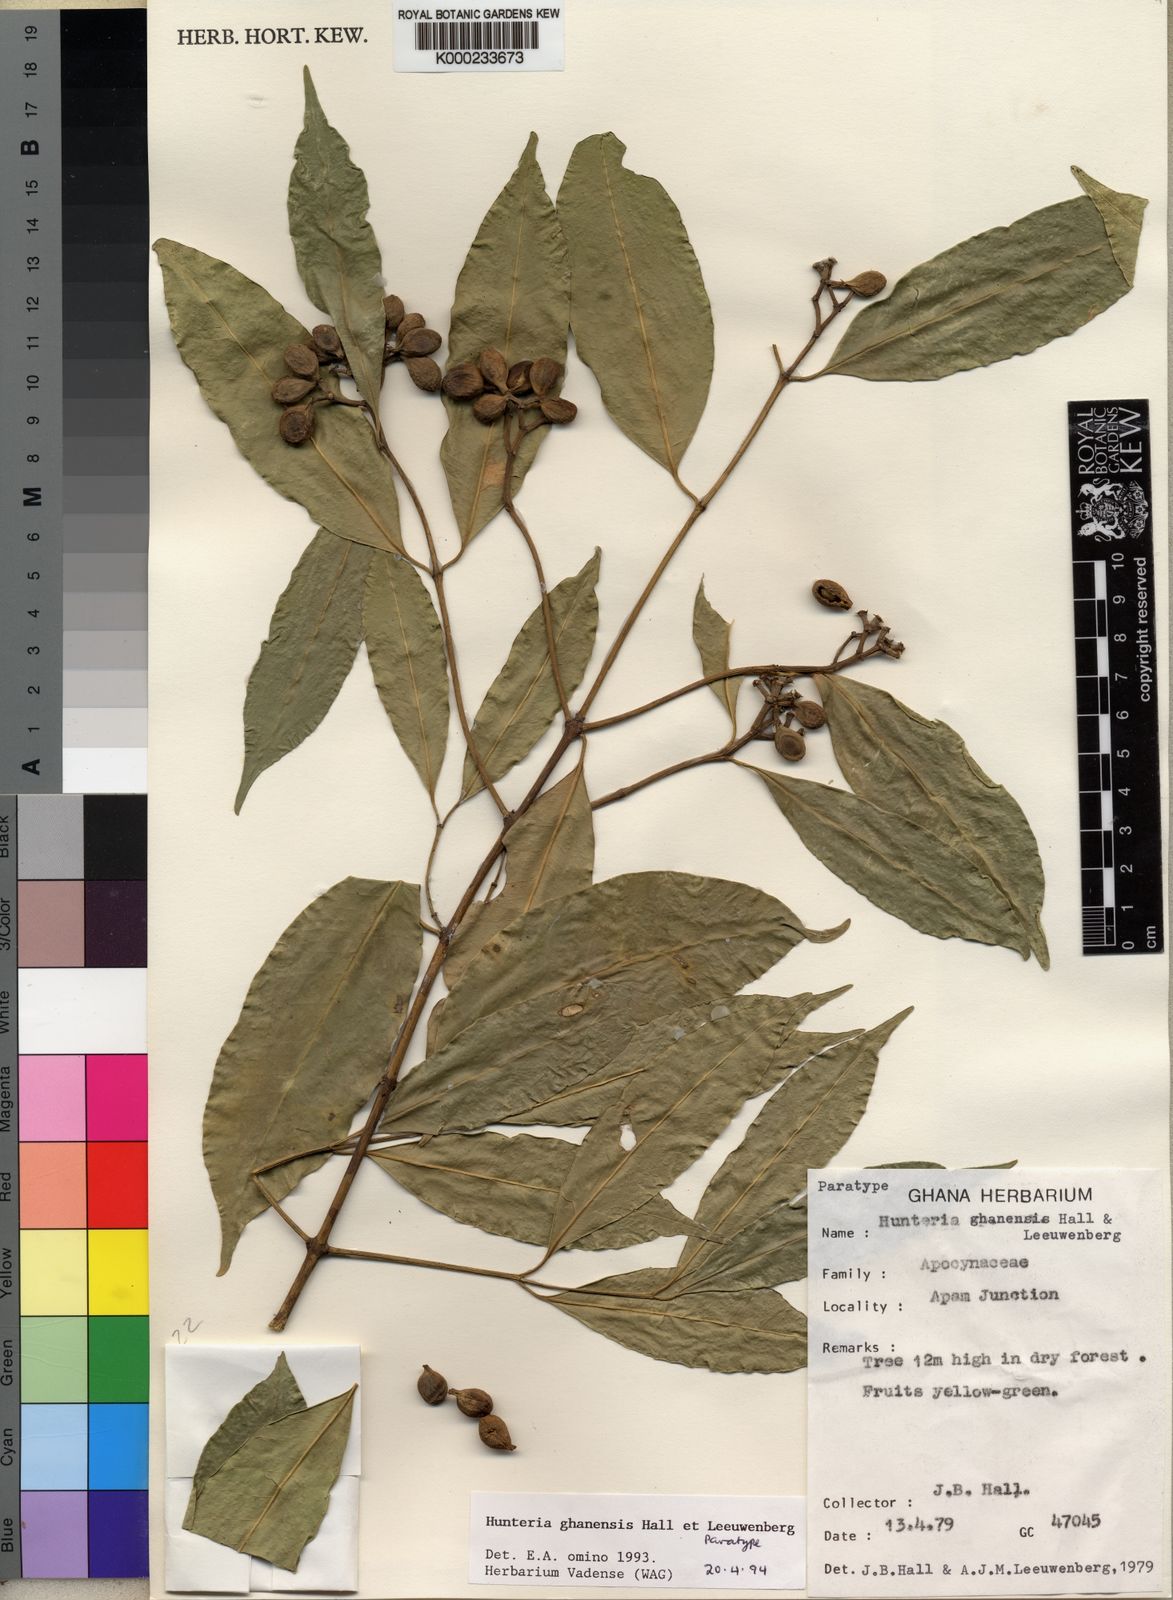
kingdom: Plantae
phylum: Tracheophyta
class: Magnoliopsida
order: Gentianales
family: Apocynaceae
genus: Hunteria
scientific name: Hunteria ghanensis
